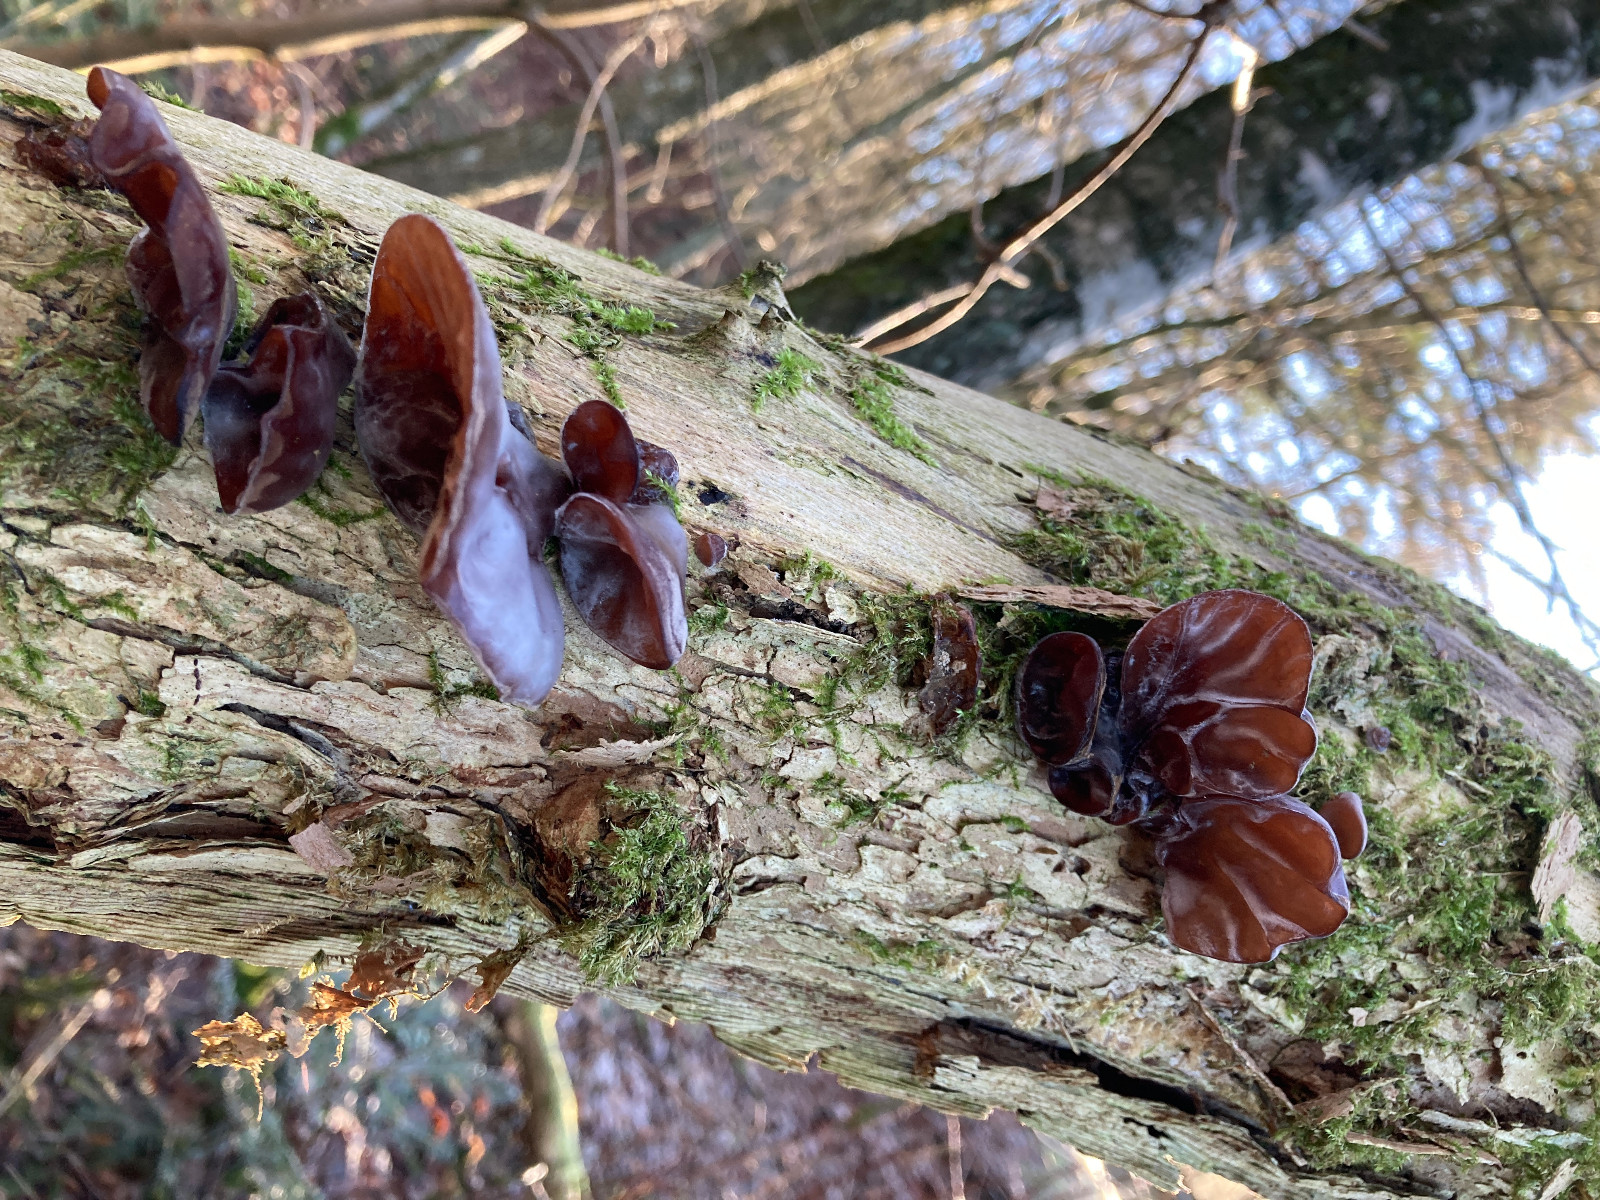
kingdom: Fungi
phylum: Basidiomycota
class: Agaricomycetes
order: Auriculariales
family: Auriculariaceae
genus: Auricularia
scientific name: Auricularia auricula-judae
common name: almindelig judasøre
